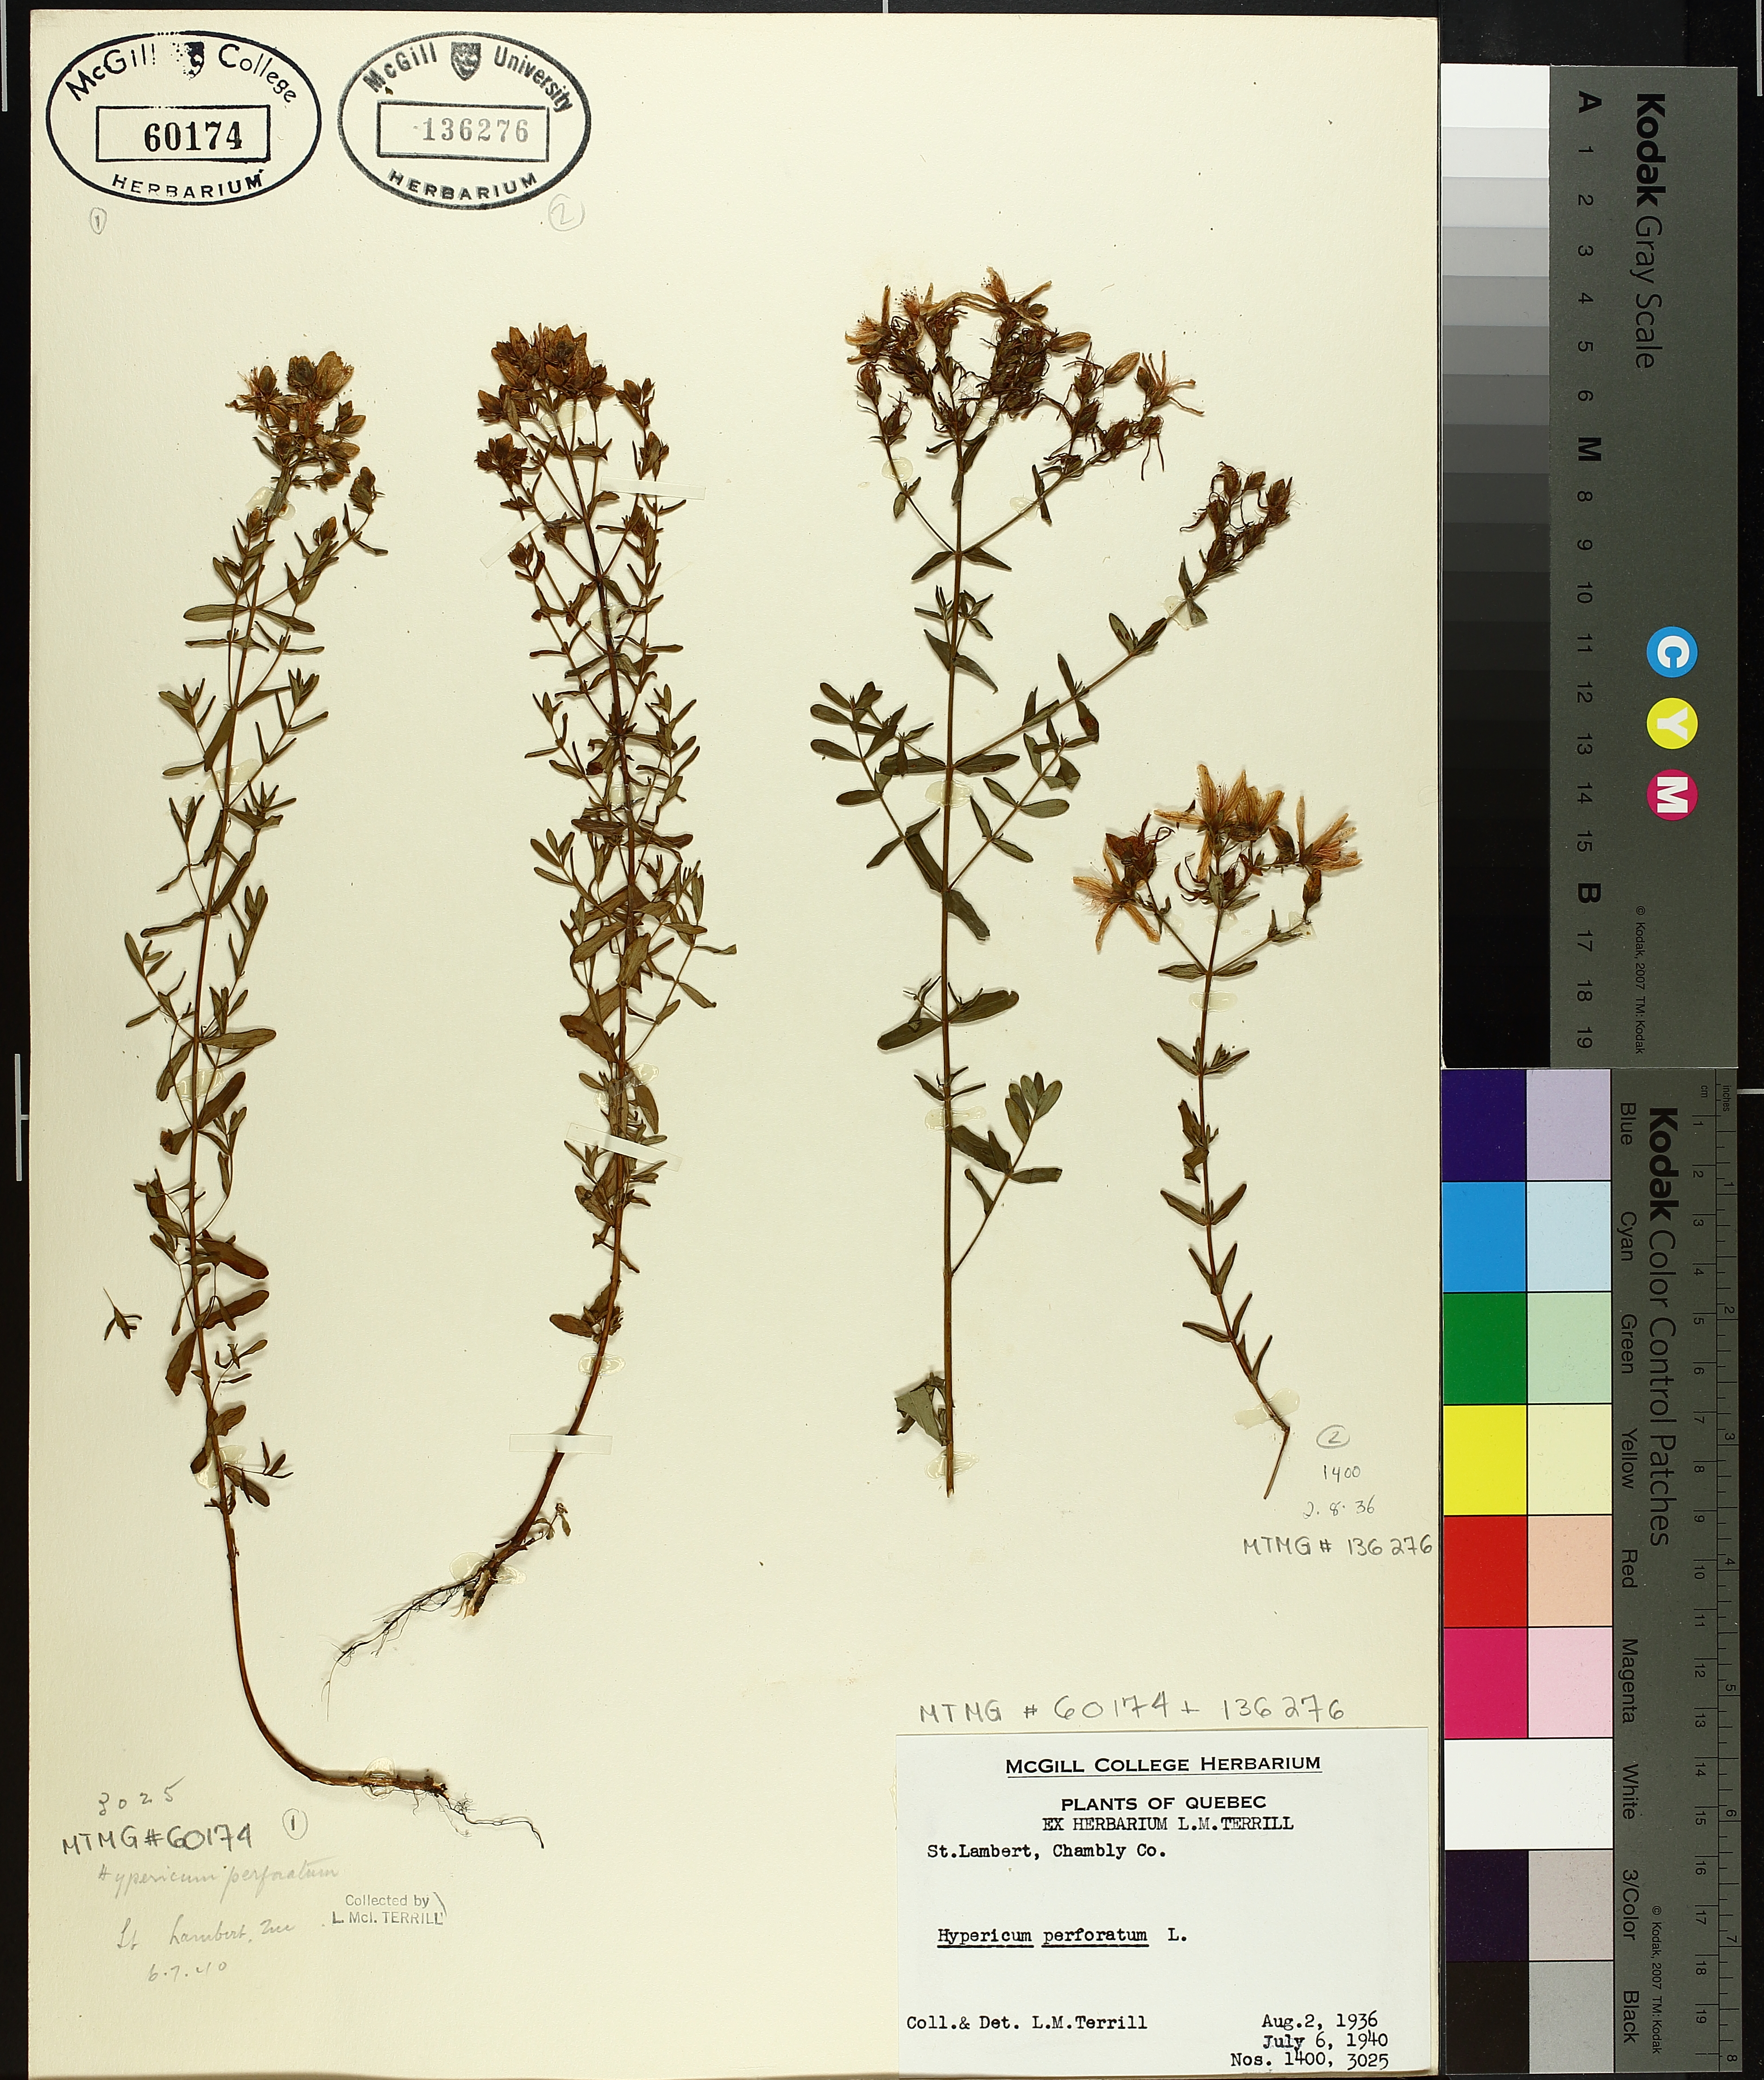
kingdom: Plantae
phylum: Tracheophyta
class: Magnoliopsida
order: Malpighiales
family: Hypericaceae
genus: Hypericum
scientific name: Hypericum perforatum
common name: Common st. johnswort
